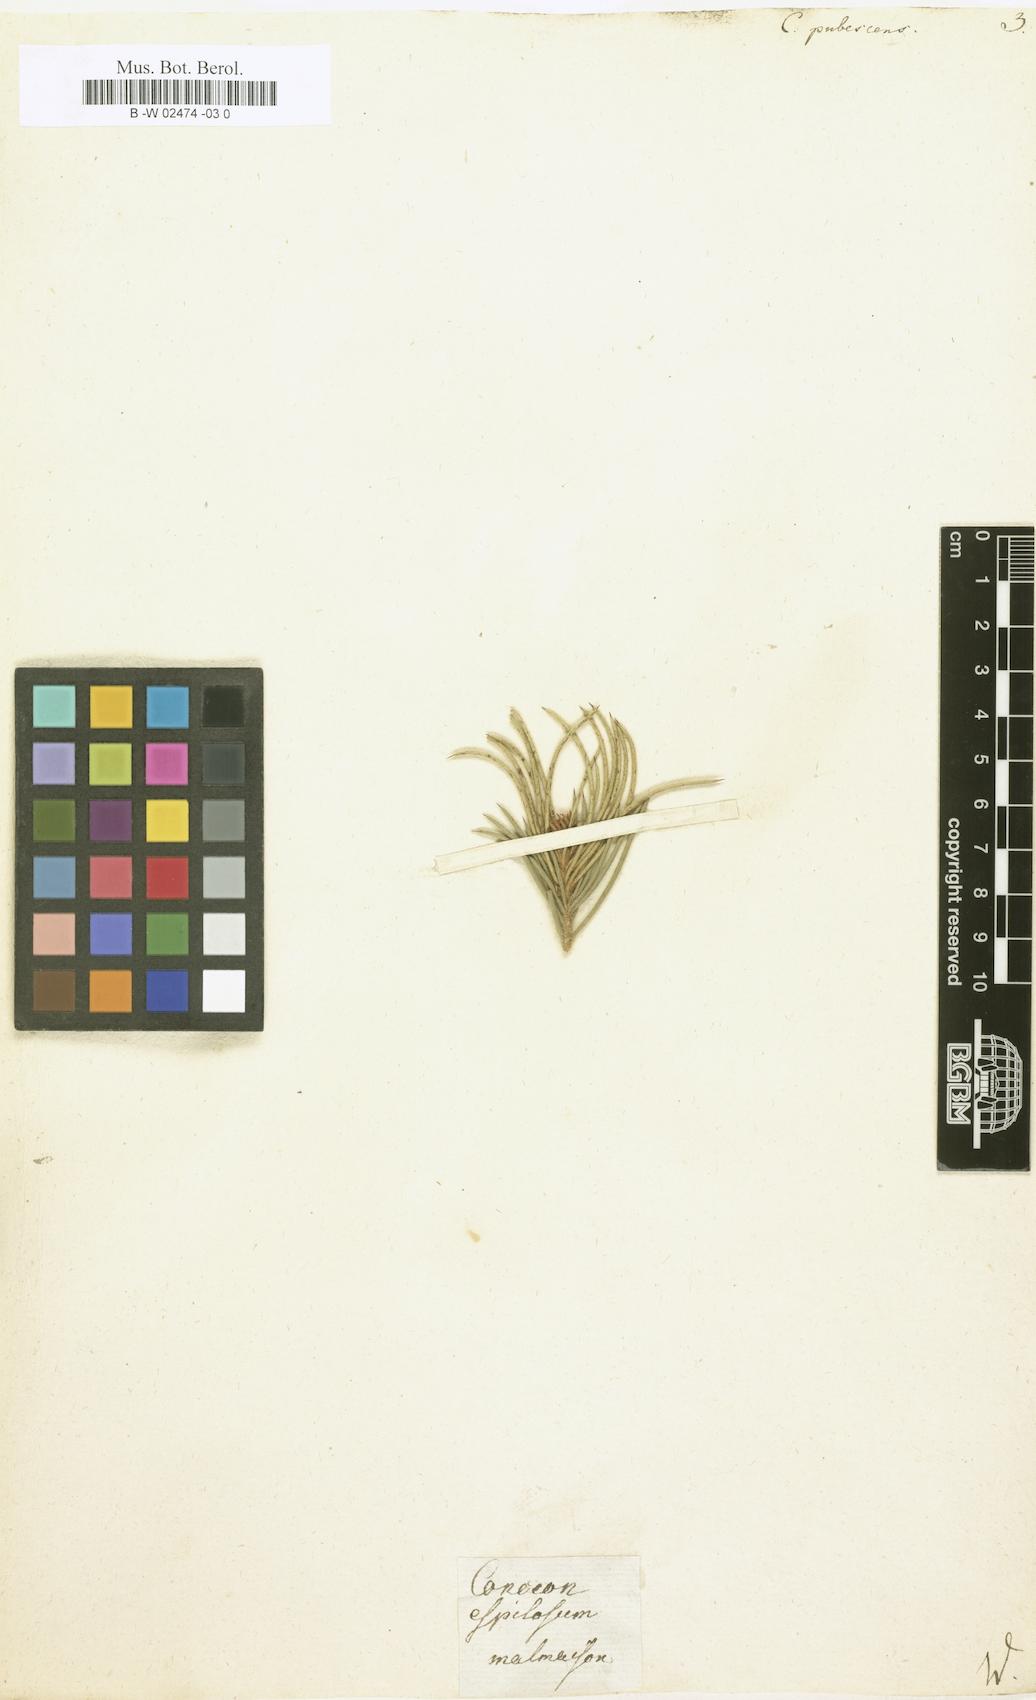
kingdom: Plantae
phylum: Tracheophyta
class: Magnoliopsida
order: Proteales
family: Proteaceae
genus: Hakea
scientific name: Hakea gibbosa
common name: Rock hakea
